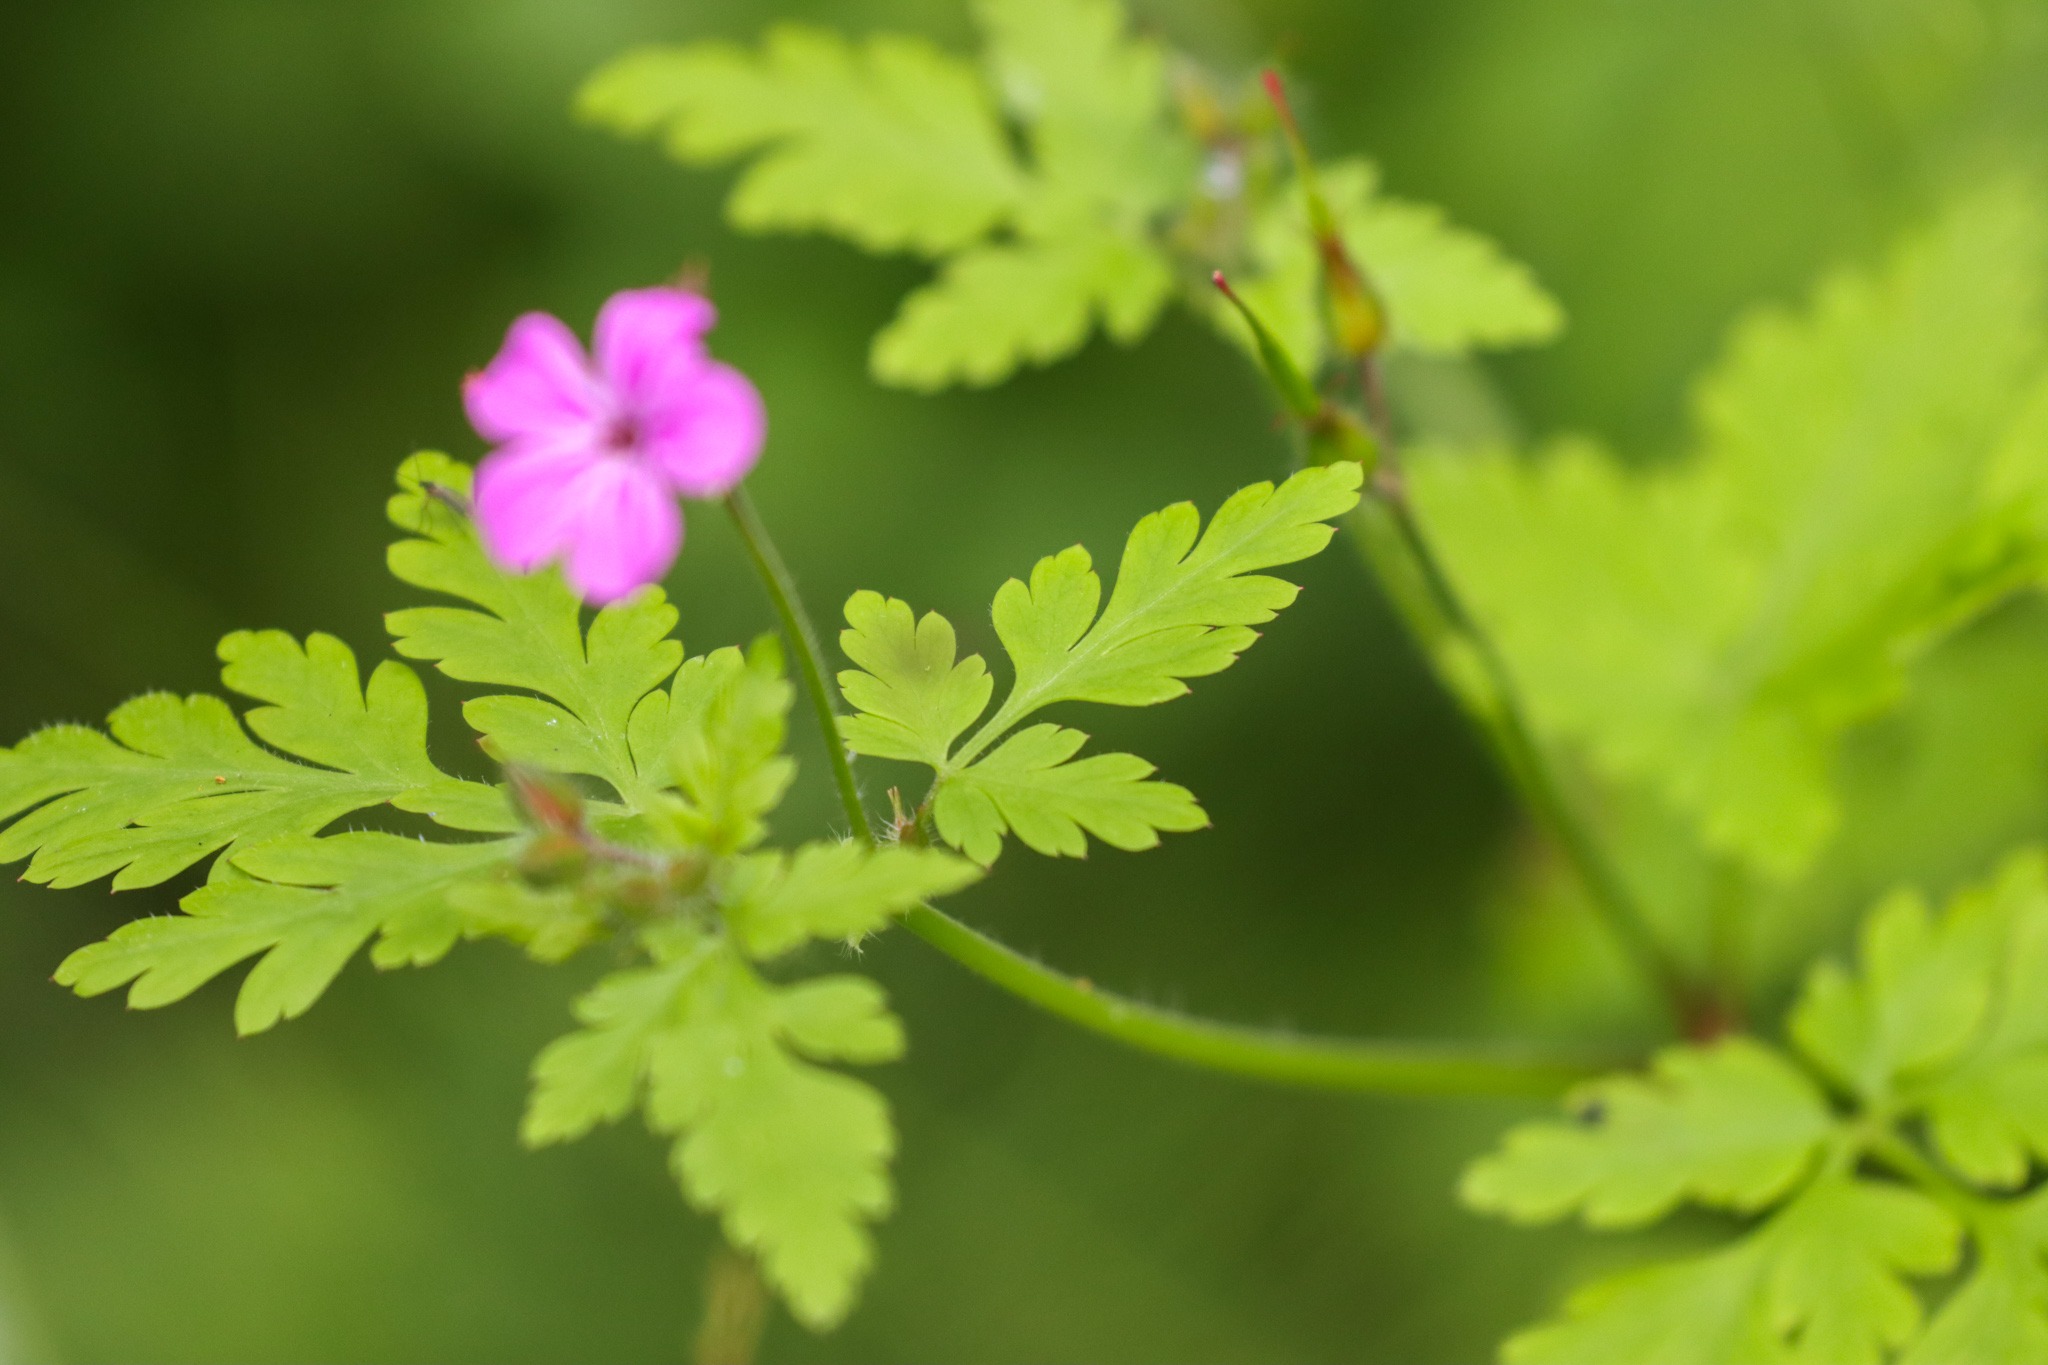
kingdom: Plantae
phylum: Tracheophyta
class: Magnoliopsida
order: Geraniales
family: Geraniaceae
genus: Geranium
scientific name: Geranium robertianum
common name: Stinkende storkenæb
